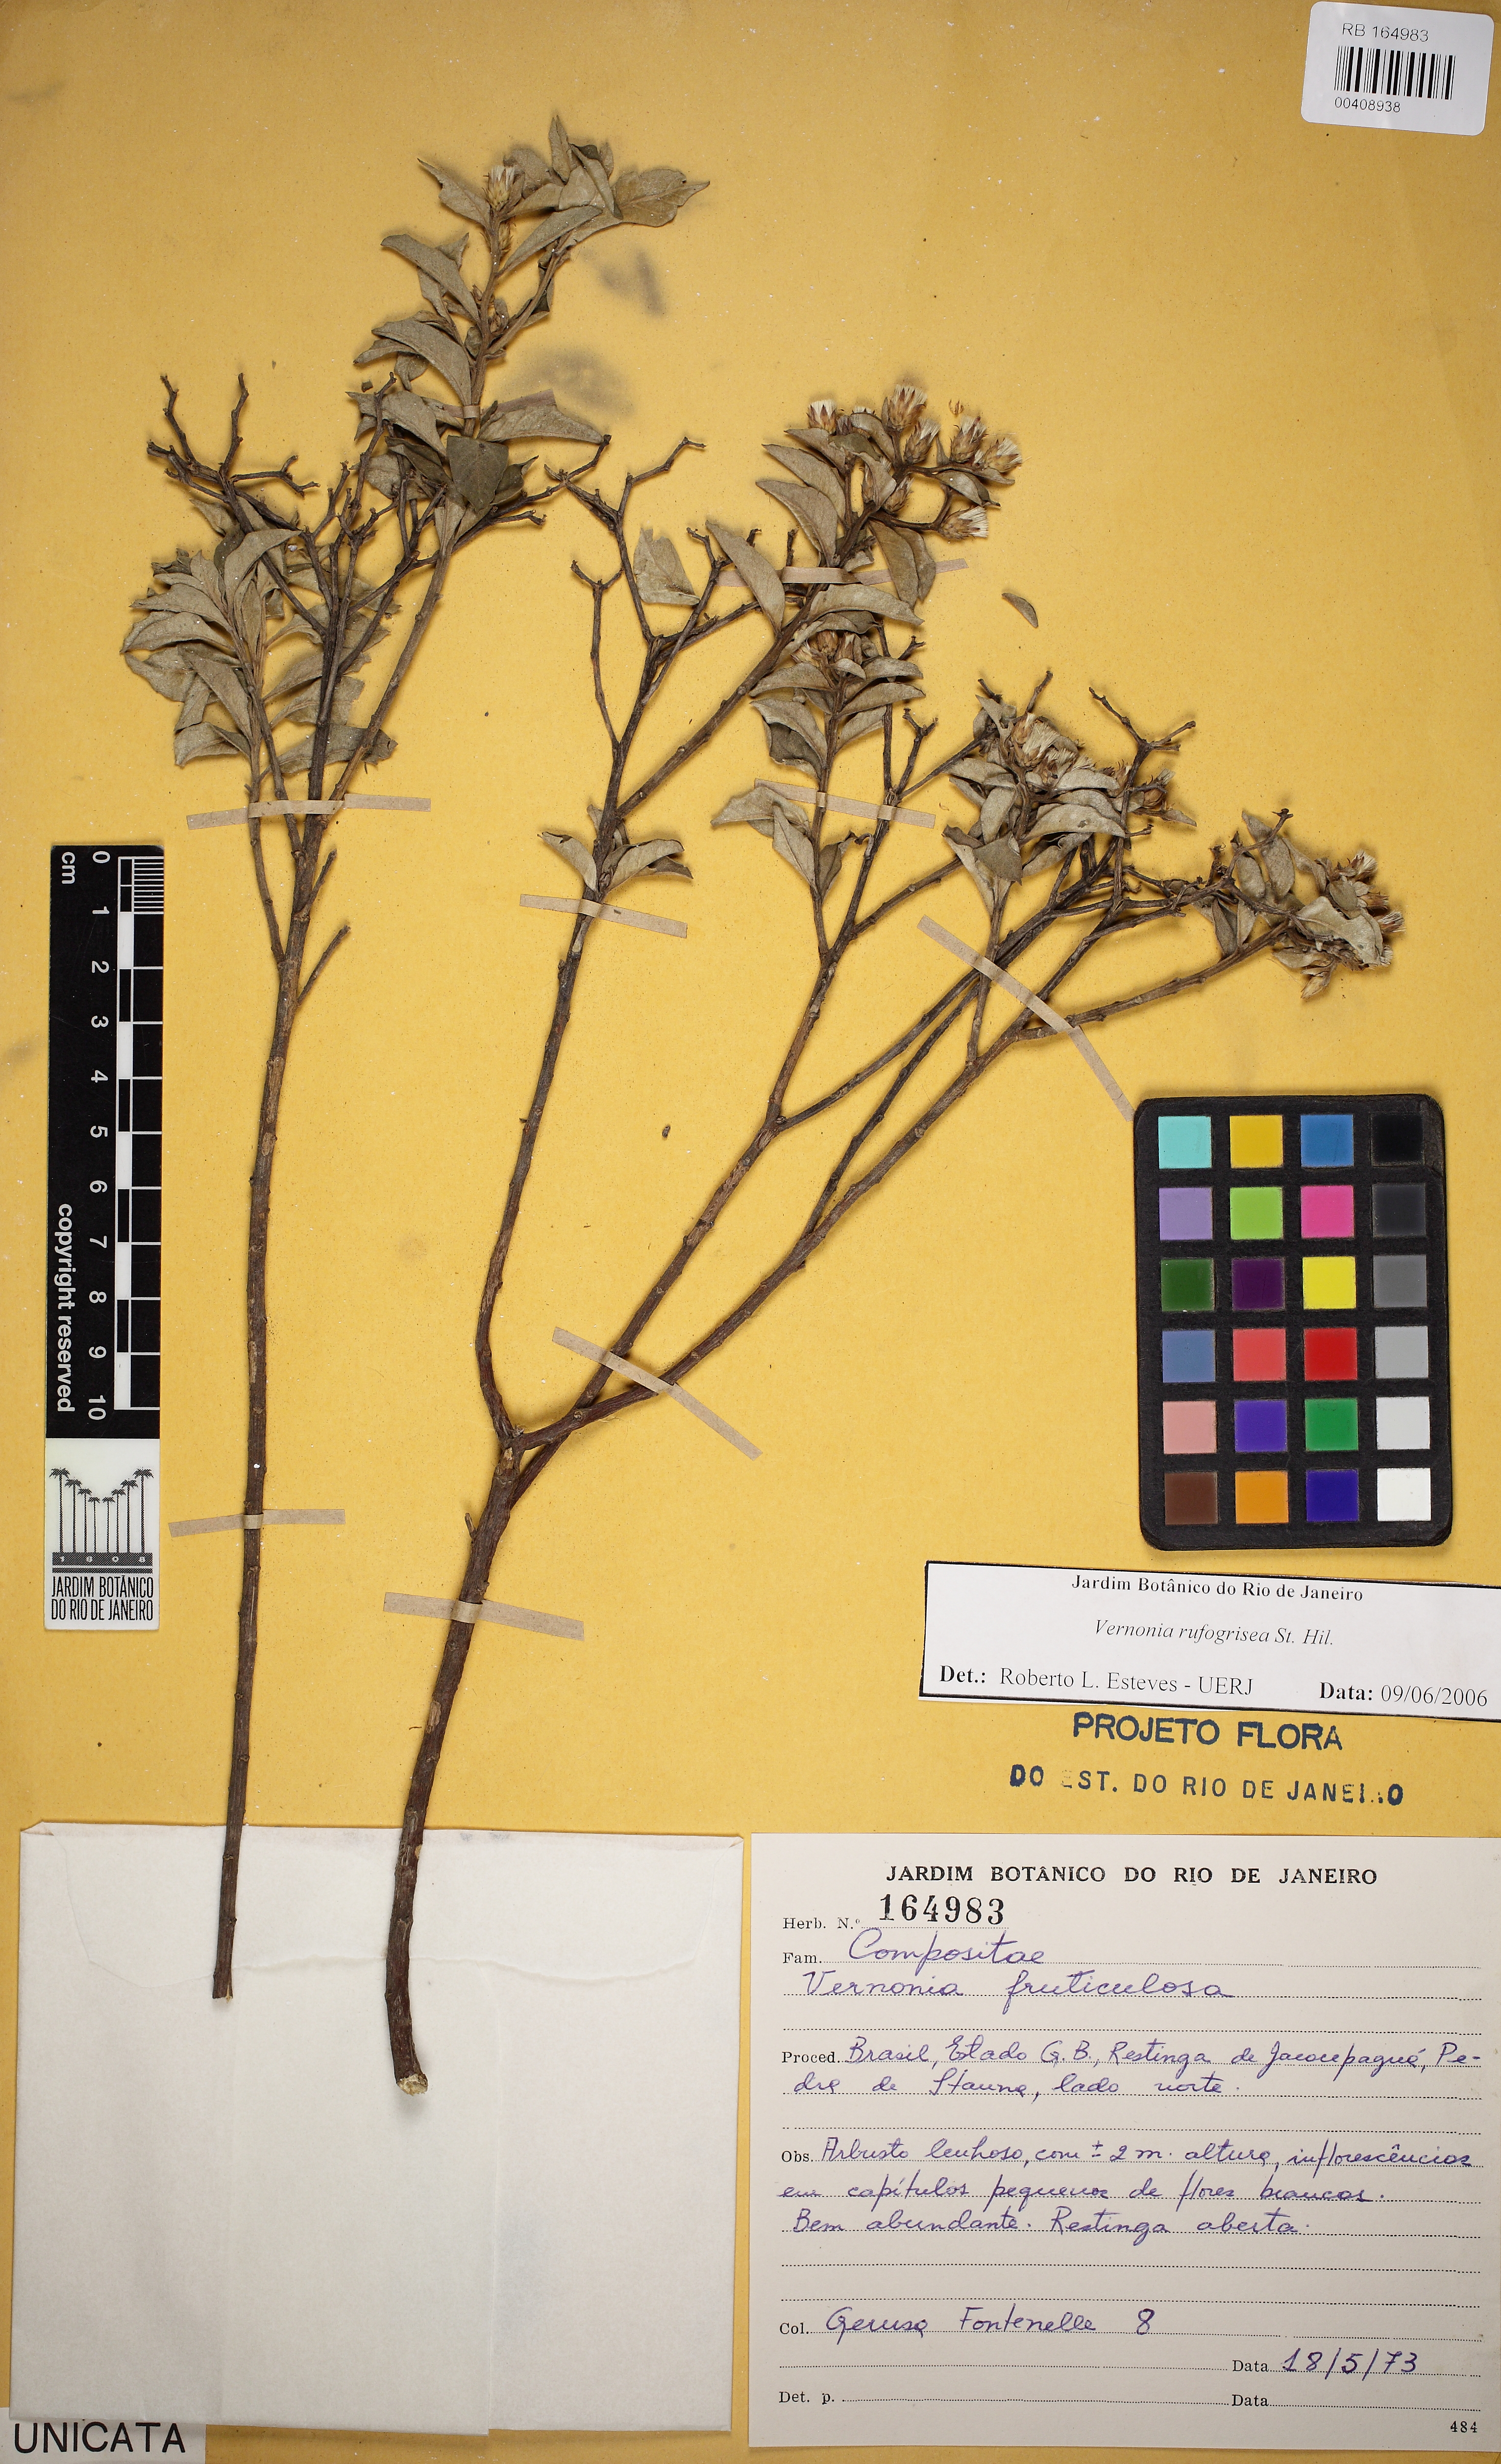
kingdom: Plantae
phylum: Tracheophyta
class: Magnoliopsida
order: Asterales
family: Asteraceae
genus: Lepidaploa
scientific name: Lepidaploa rufogrisea
